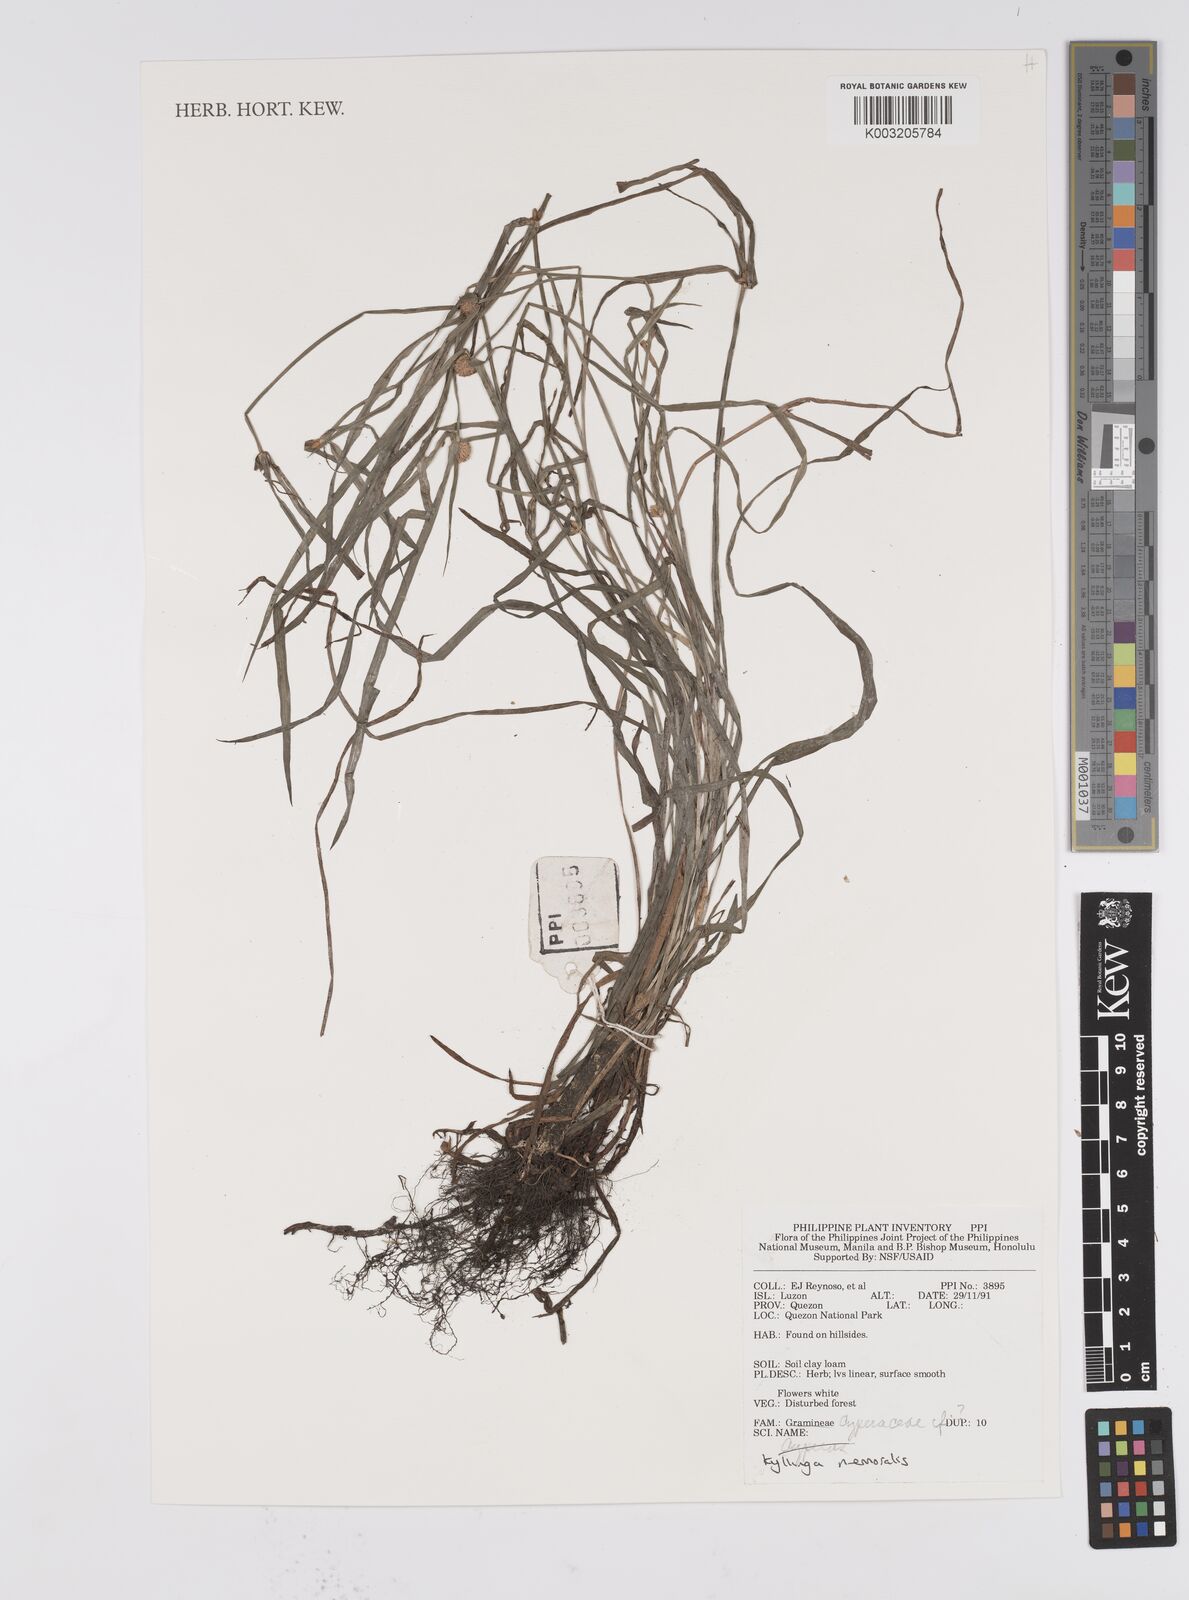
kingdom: Plantae
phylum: Tracheophyta
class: Liliopsida
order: Poales
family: Cyperaceae
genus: Cyperus
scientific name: Cyperus nemoralis
